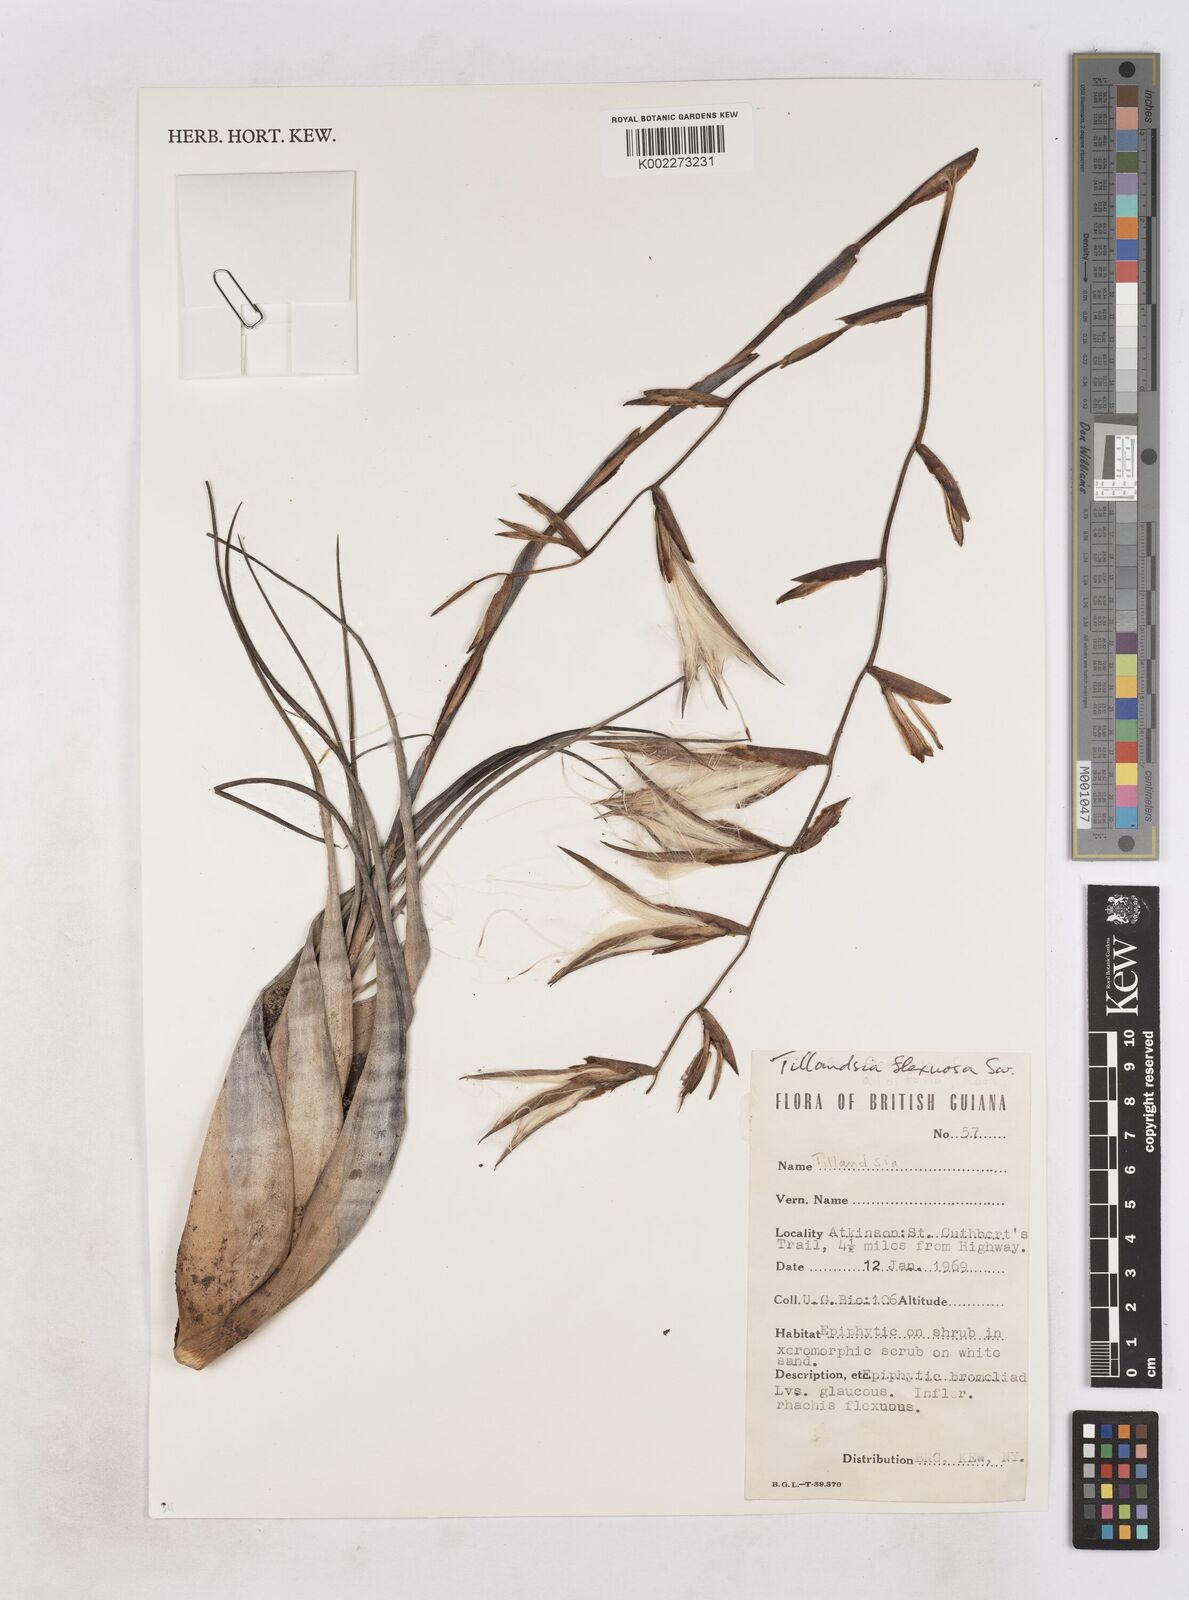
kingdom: Plantae
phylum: Tracheophyta
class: Liliopsida
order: Poales
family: Bromeliaceae
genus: Tillandsia
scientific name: Tillandsia flexuosa
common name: Banded airplant
